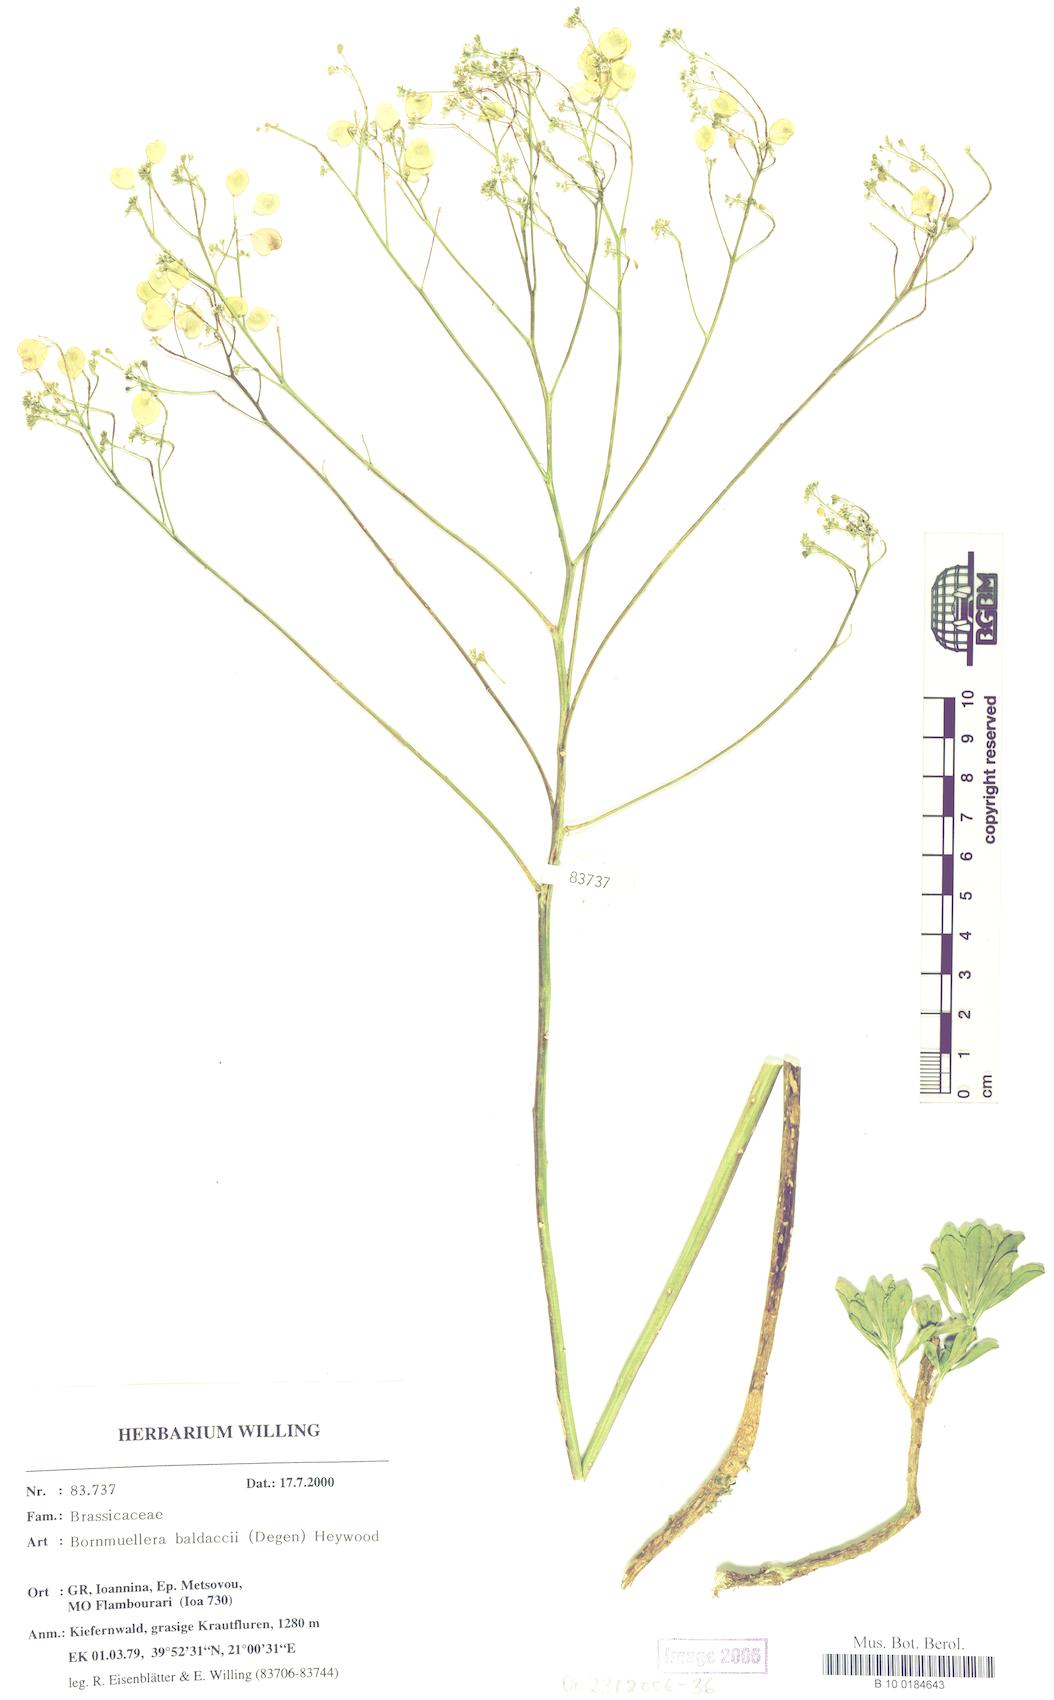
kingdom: Plantae
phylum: Tracheophyta
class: Magnoliopsida
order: Brassicales
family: Brassicaceae
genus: Bornmuellera
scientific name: Bornmuellera baldaccii
